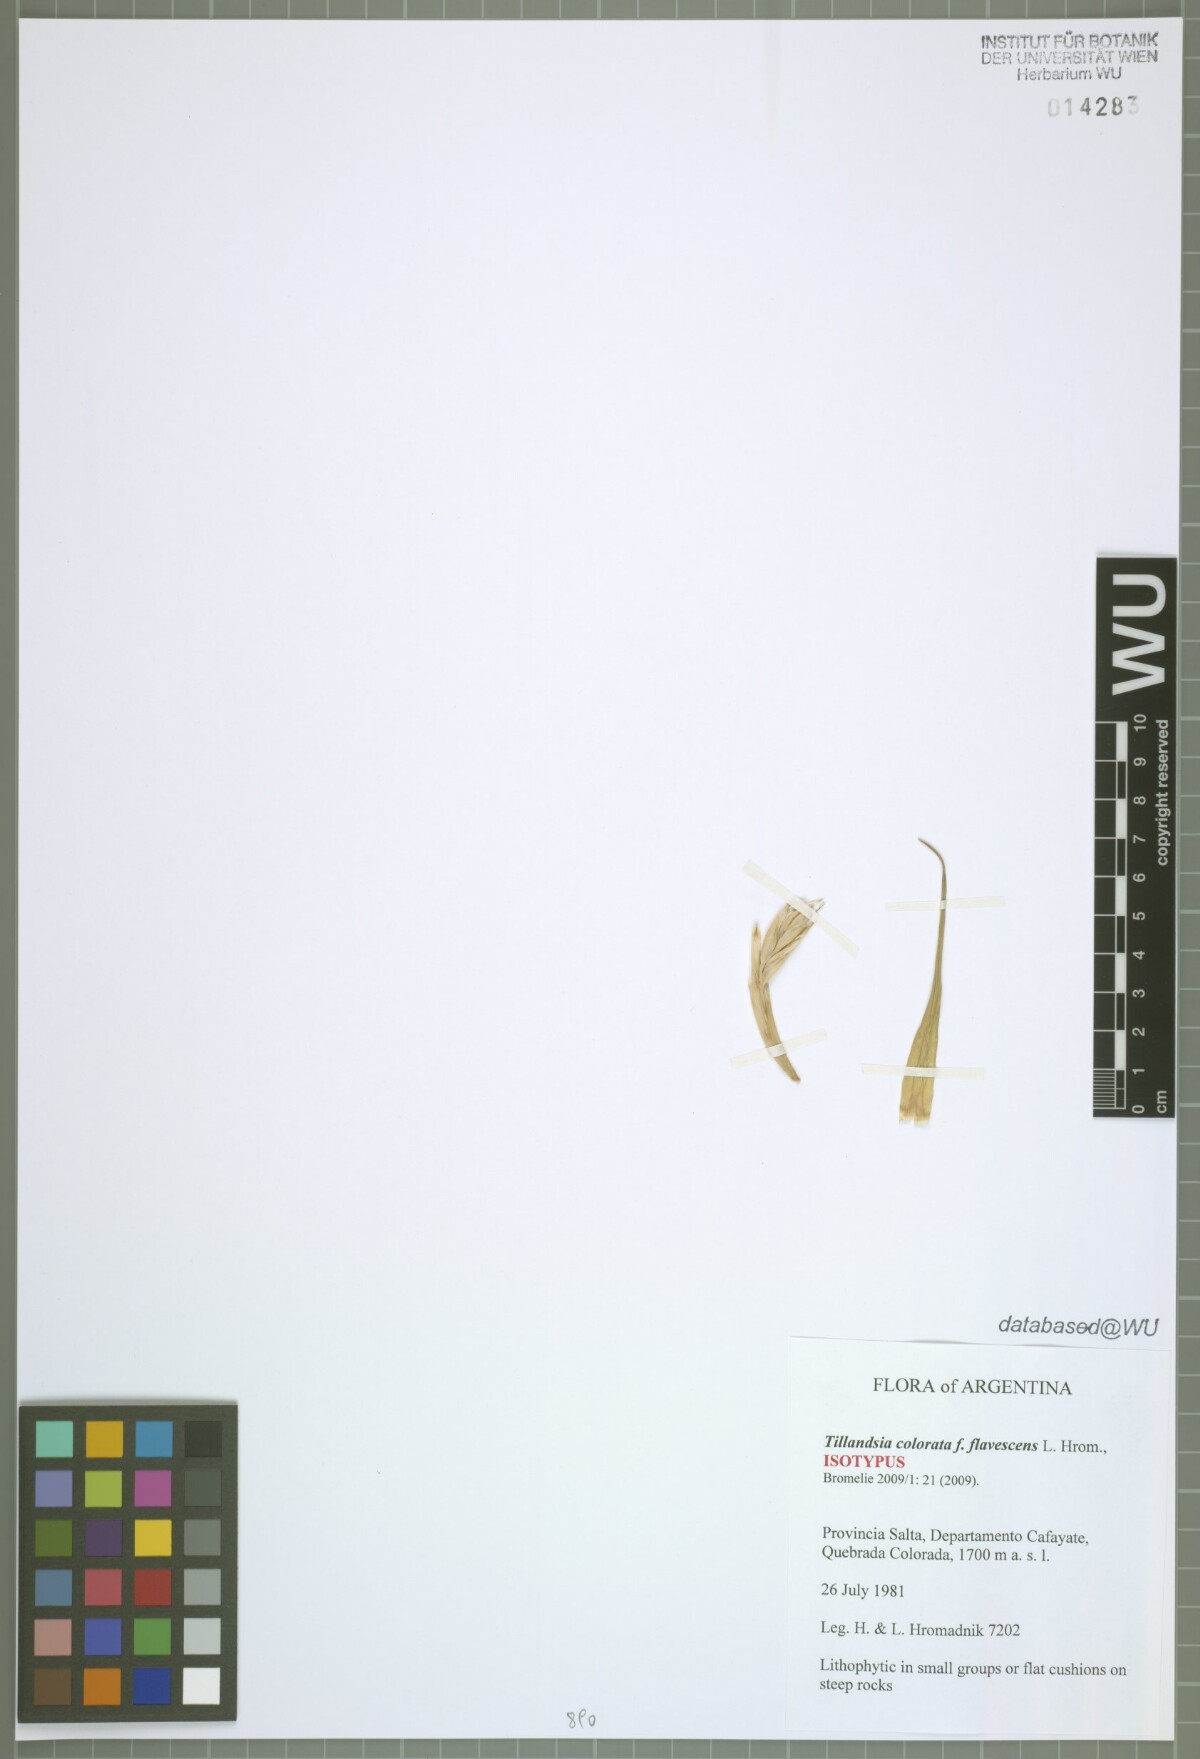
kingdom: Plantae
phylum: Tracheophyta
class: Liliopsida
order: Poales
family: Bromeliaceae
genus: Tillandsia
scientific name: Tillandsia colorata
